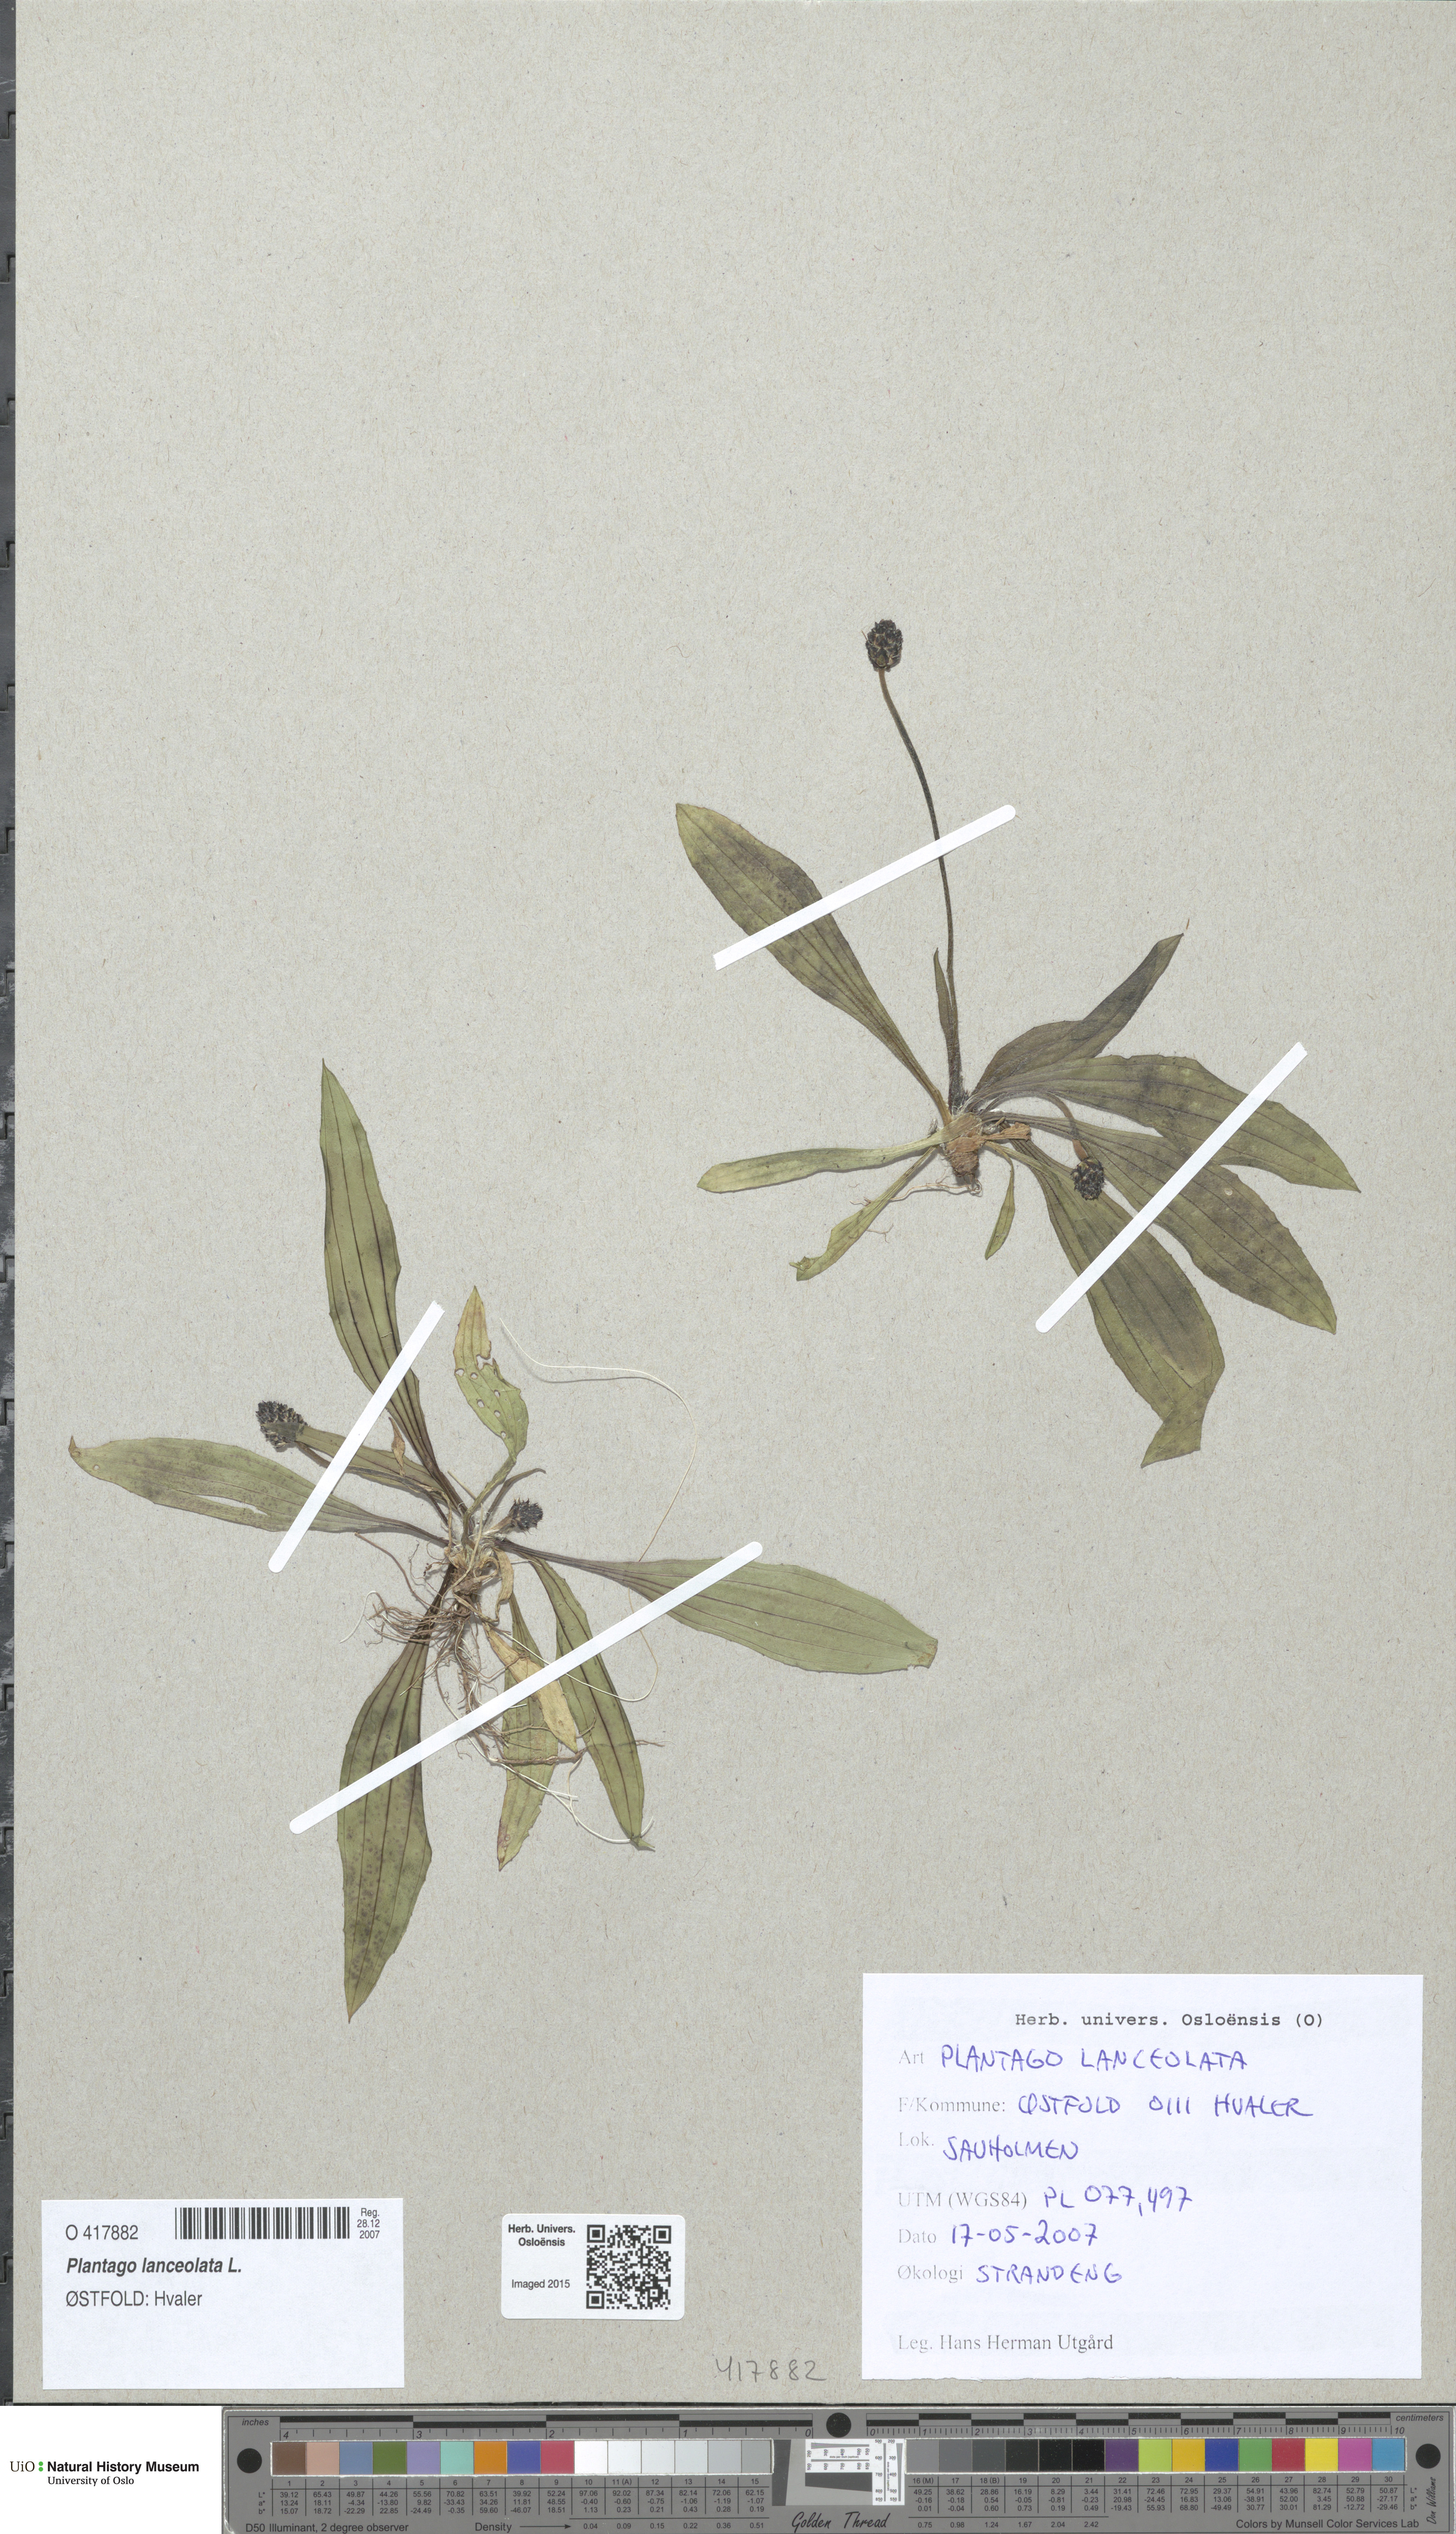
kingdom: Plantae
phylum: Tracheophyta
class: Magnoliopsida
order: Lamiales
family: Plantaginaceae
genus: Plantago
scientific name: Plantago lanceolata
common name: Ribwort plantain
